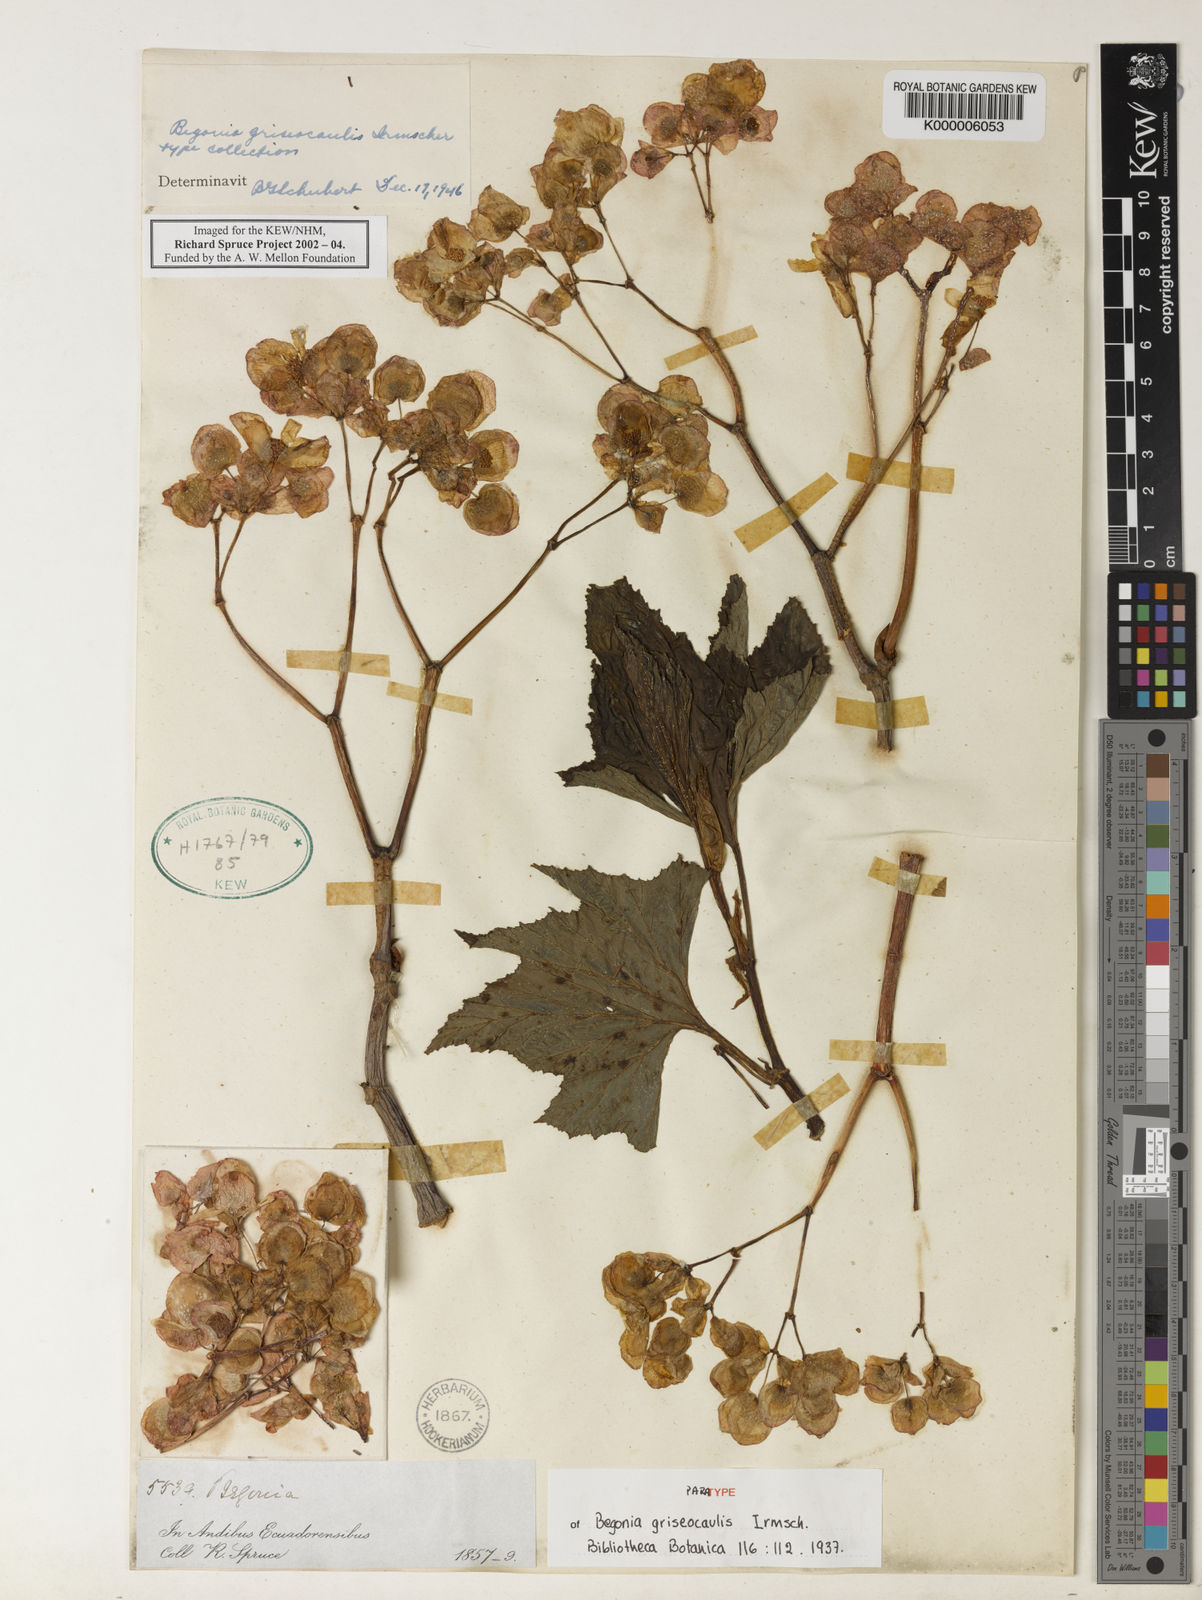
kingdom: Plantae
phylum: Tracheophyta
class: Magnoliopsida
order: Cucurbitales
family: Begoniaceae
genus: Begonia
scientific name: Begonia acerifolia
